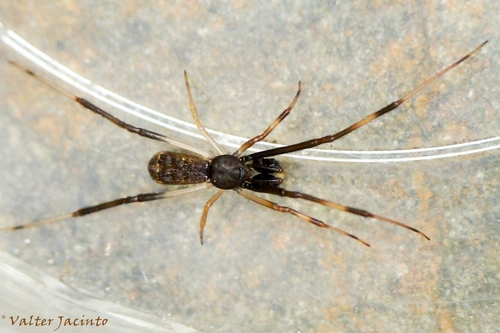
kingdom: Animalia
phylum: Arthropoda
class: Arachnida
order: Araneae
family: Theridiidae
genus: Episinus
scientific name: Episinus truncatus
